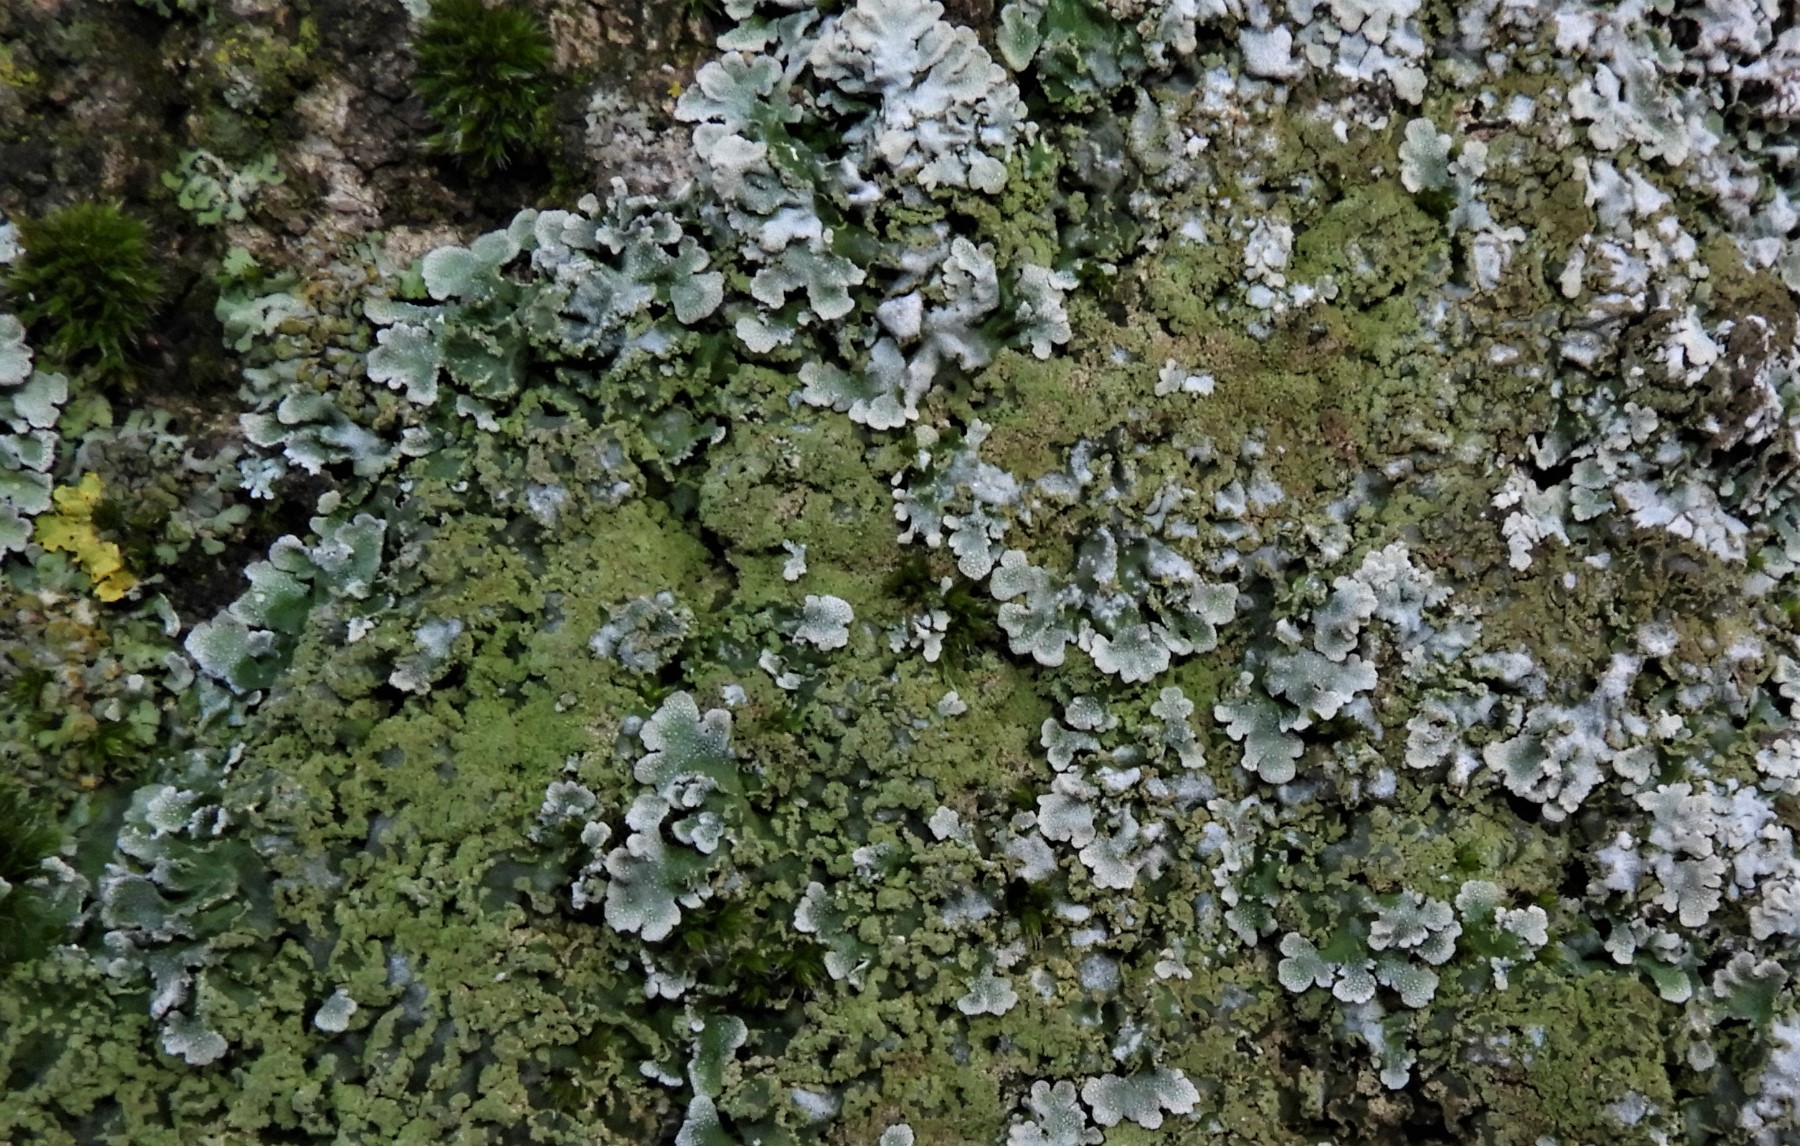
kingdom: Fungi
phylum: Ascomycota
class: Lecanoromycetes
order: Caliciales
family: Physciaceae
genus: Physconia
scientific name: Physconia
